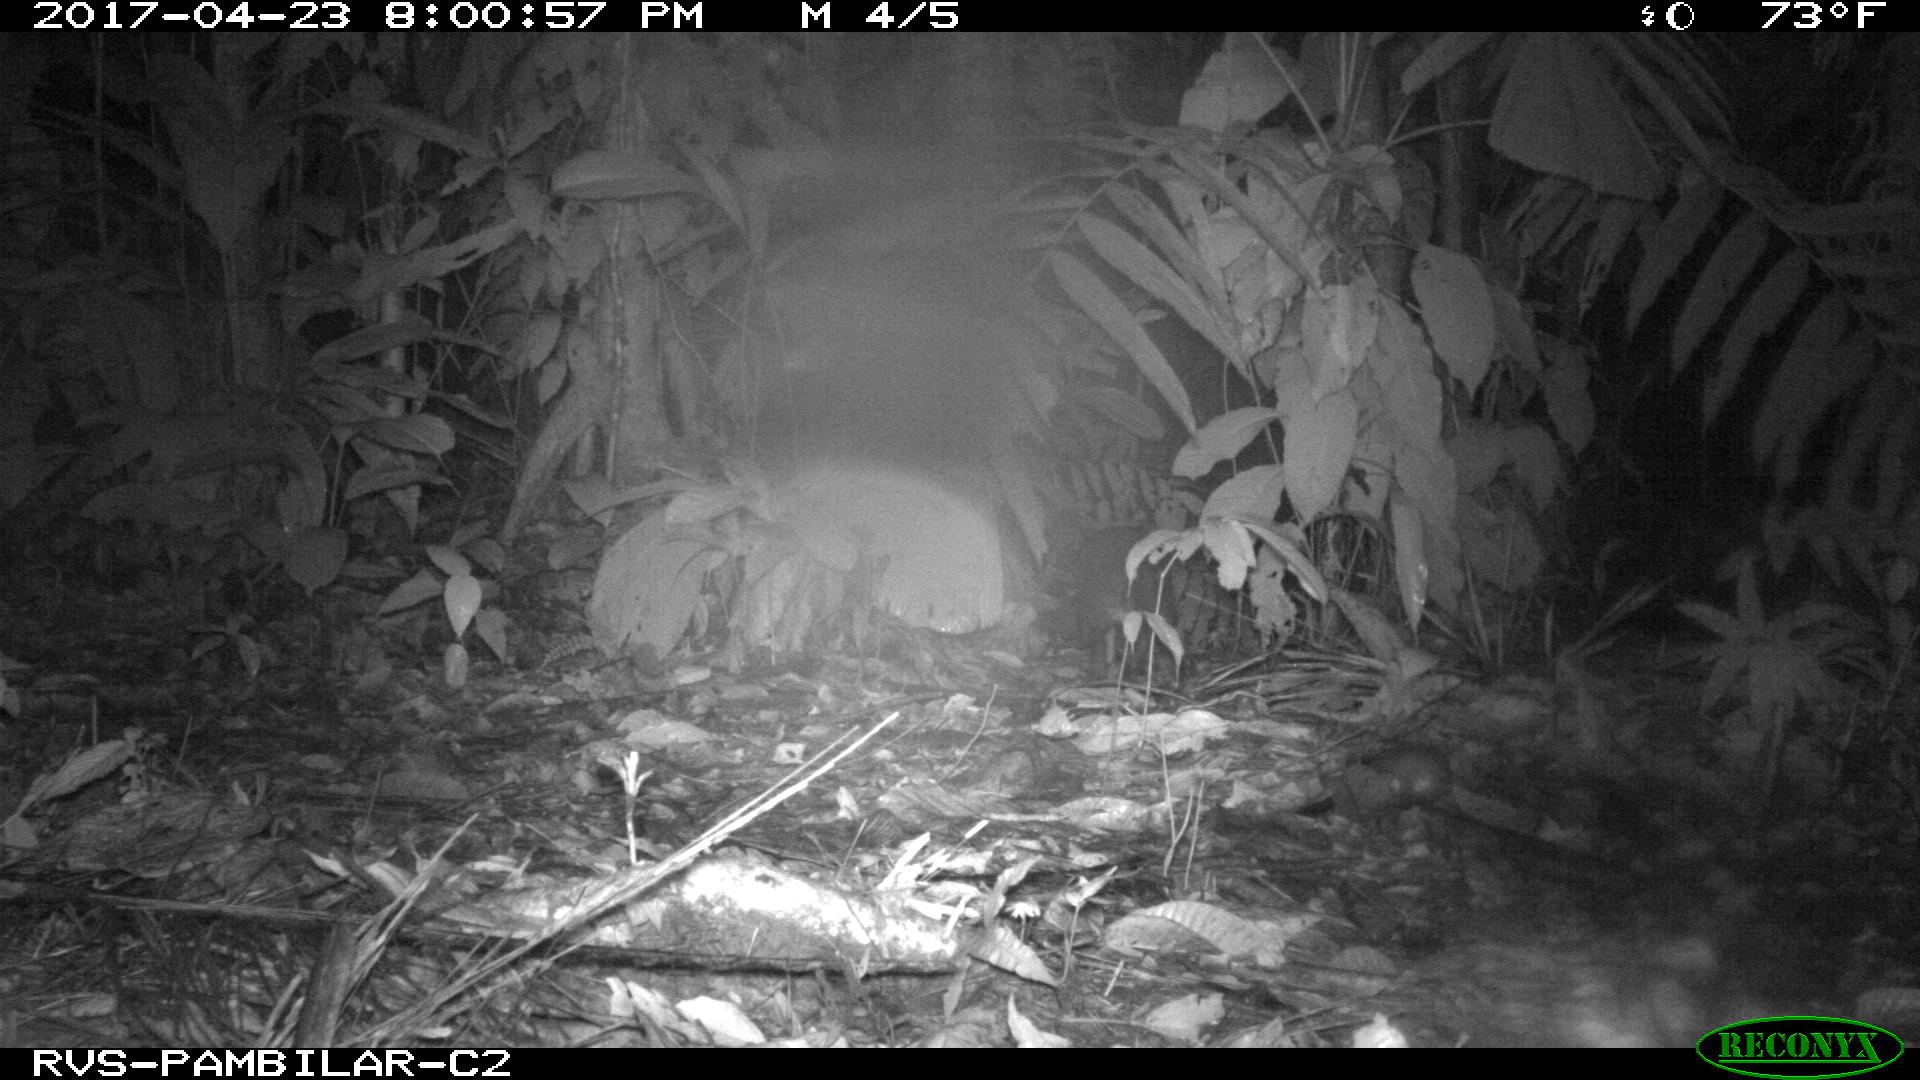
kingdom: Animalia
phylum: Chordata
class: Mammalia
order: Rodentia
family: Cuniculidae
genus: Cuniculus
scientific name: Cuniculus paca
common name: Lowland paca
